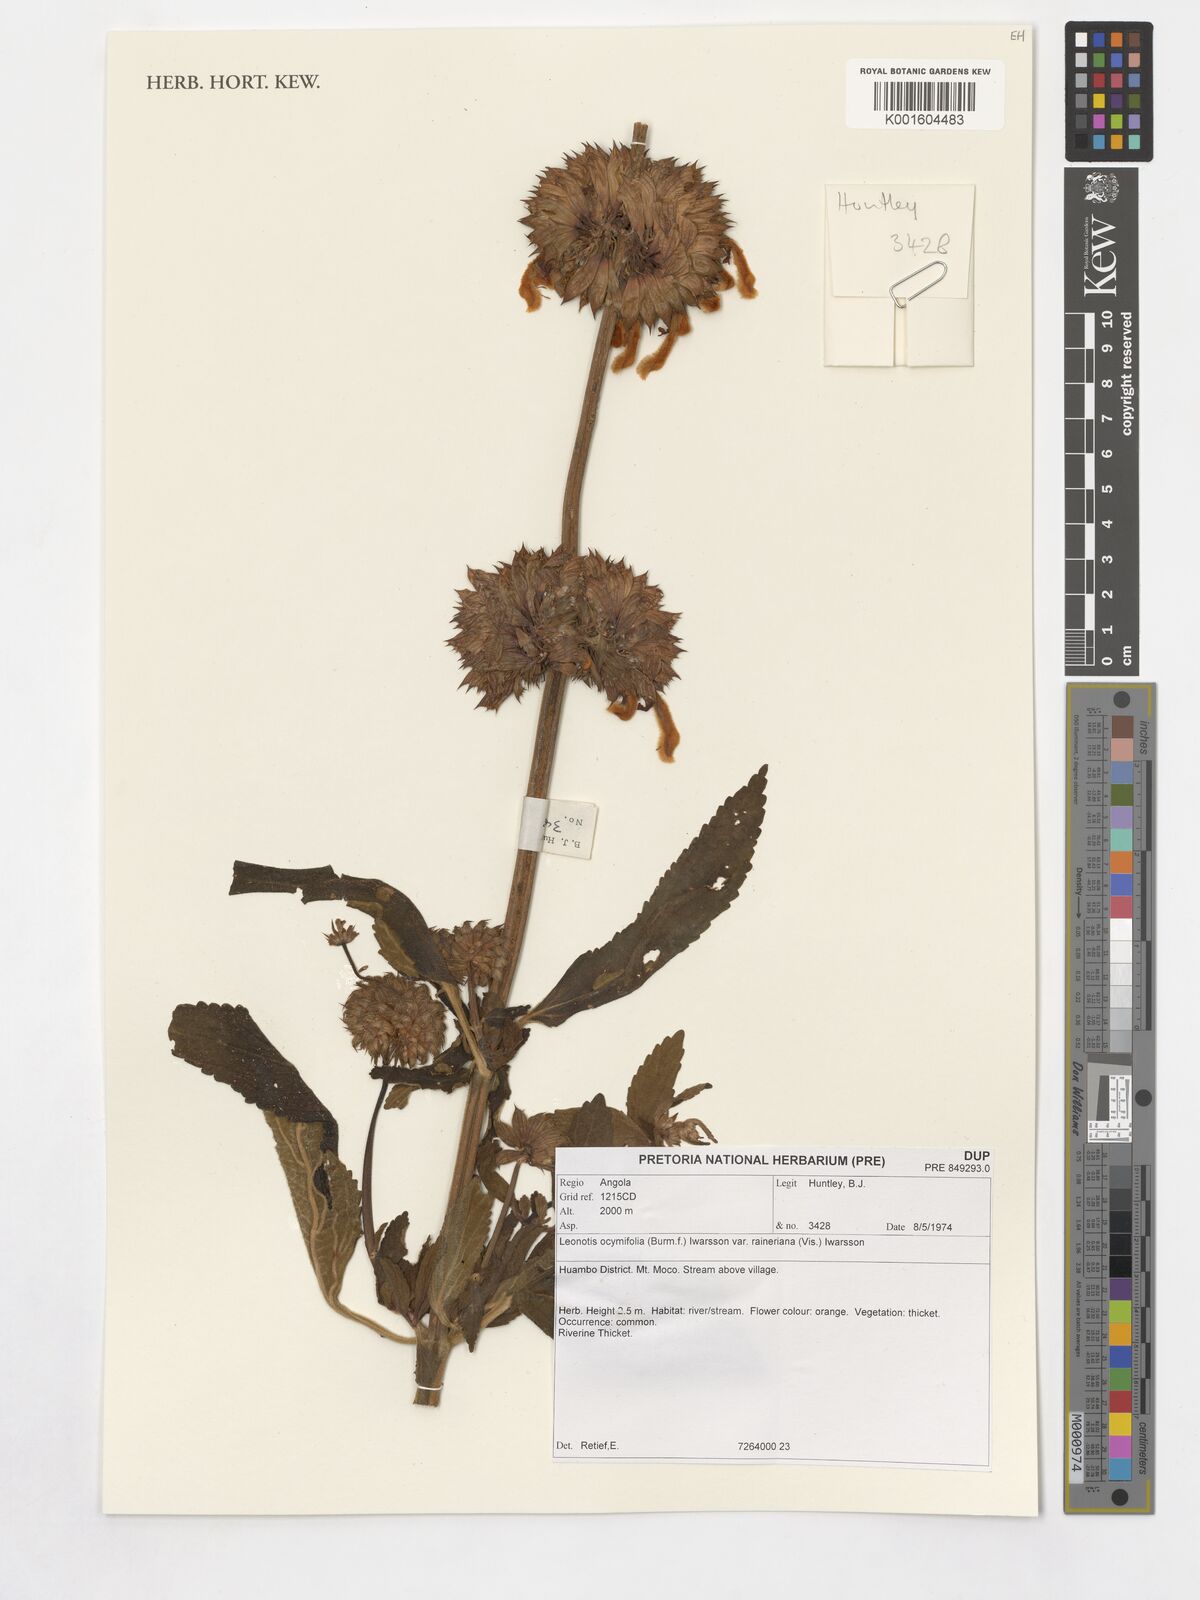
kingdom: Plantae
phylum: Tracheophyta
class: Magnoliopsida
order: Lamiales
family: Lamiaceae
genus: Leonotis
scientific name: Leonotis ocymifolia
